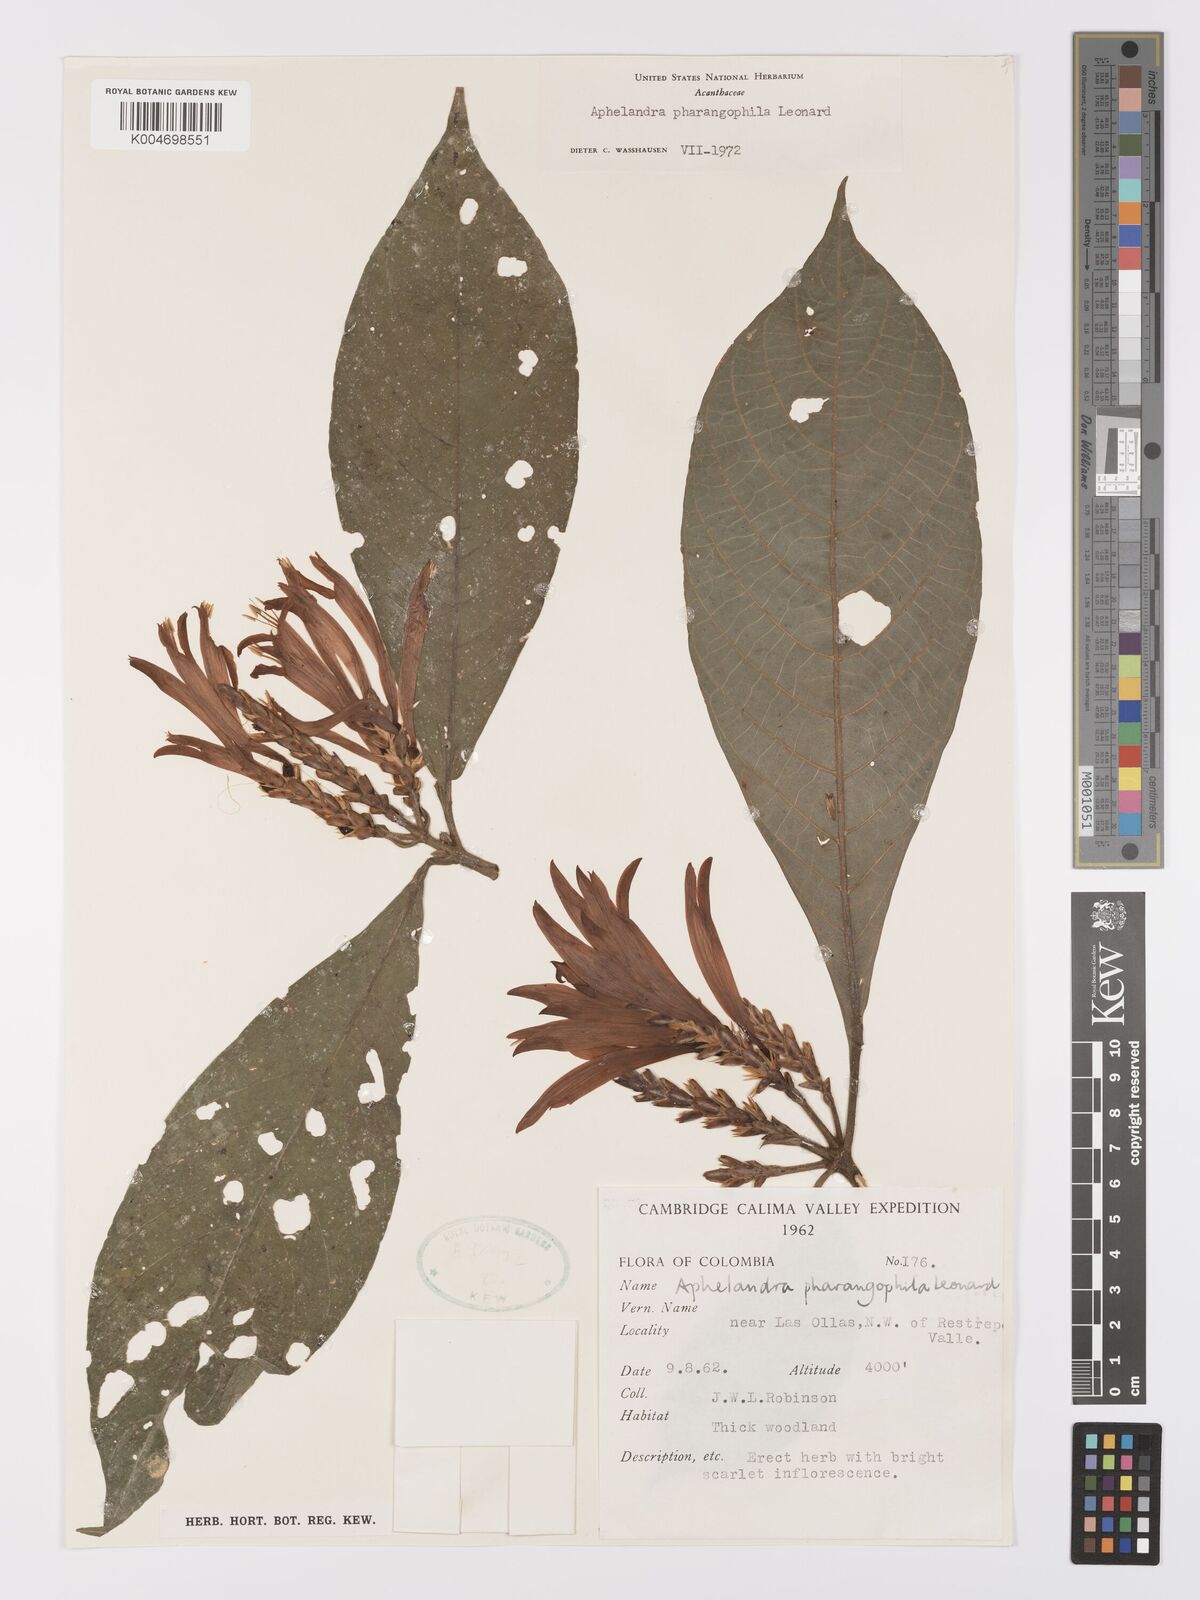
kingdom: Plantae
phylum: Tracheophyta
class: Magnoliopsida
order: Lamiales
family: Acanthaceae
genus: Aphelandra
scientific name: Aphelandra pharangophila
